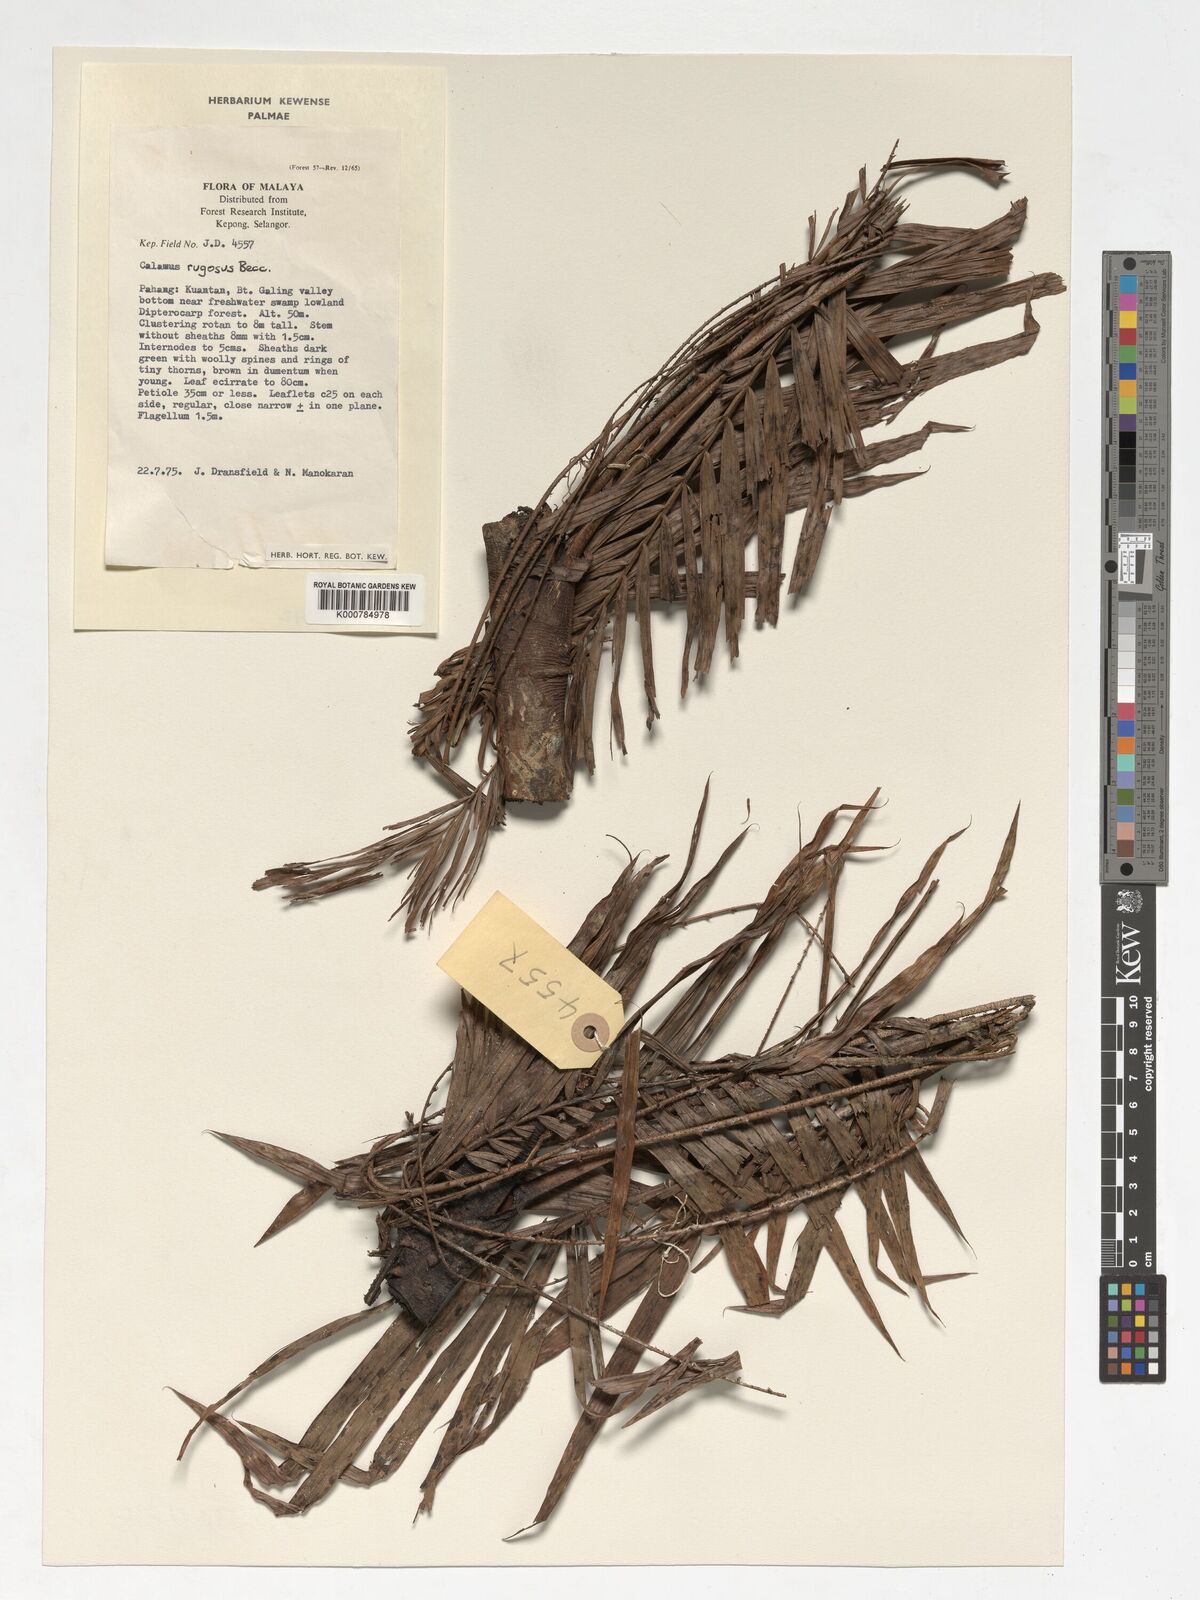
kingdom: Plantae
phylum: Tracheophyta
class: Liliopsida
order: Arecales
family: Arecaceae
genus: Calamus
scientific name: Calamus rugosus
